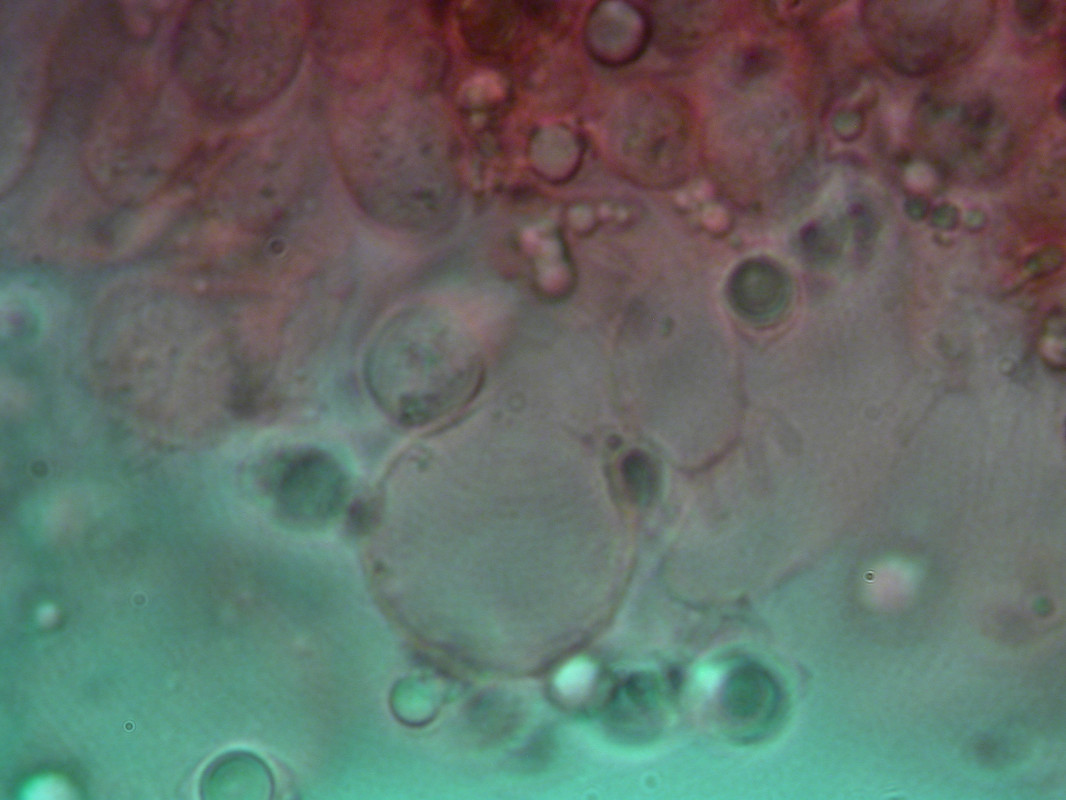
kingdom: Fungi
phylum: Basidiomycota
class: Agaricomycetes
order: Agaricales
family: Mycenaceae
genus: Mycena
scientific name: Mycena arcangeliana
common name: oliven-huesvamp
